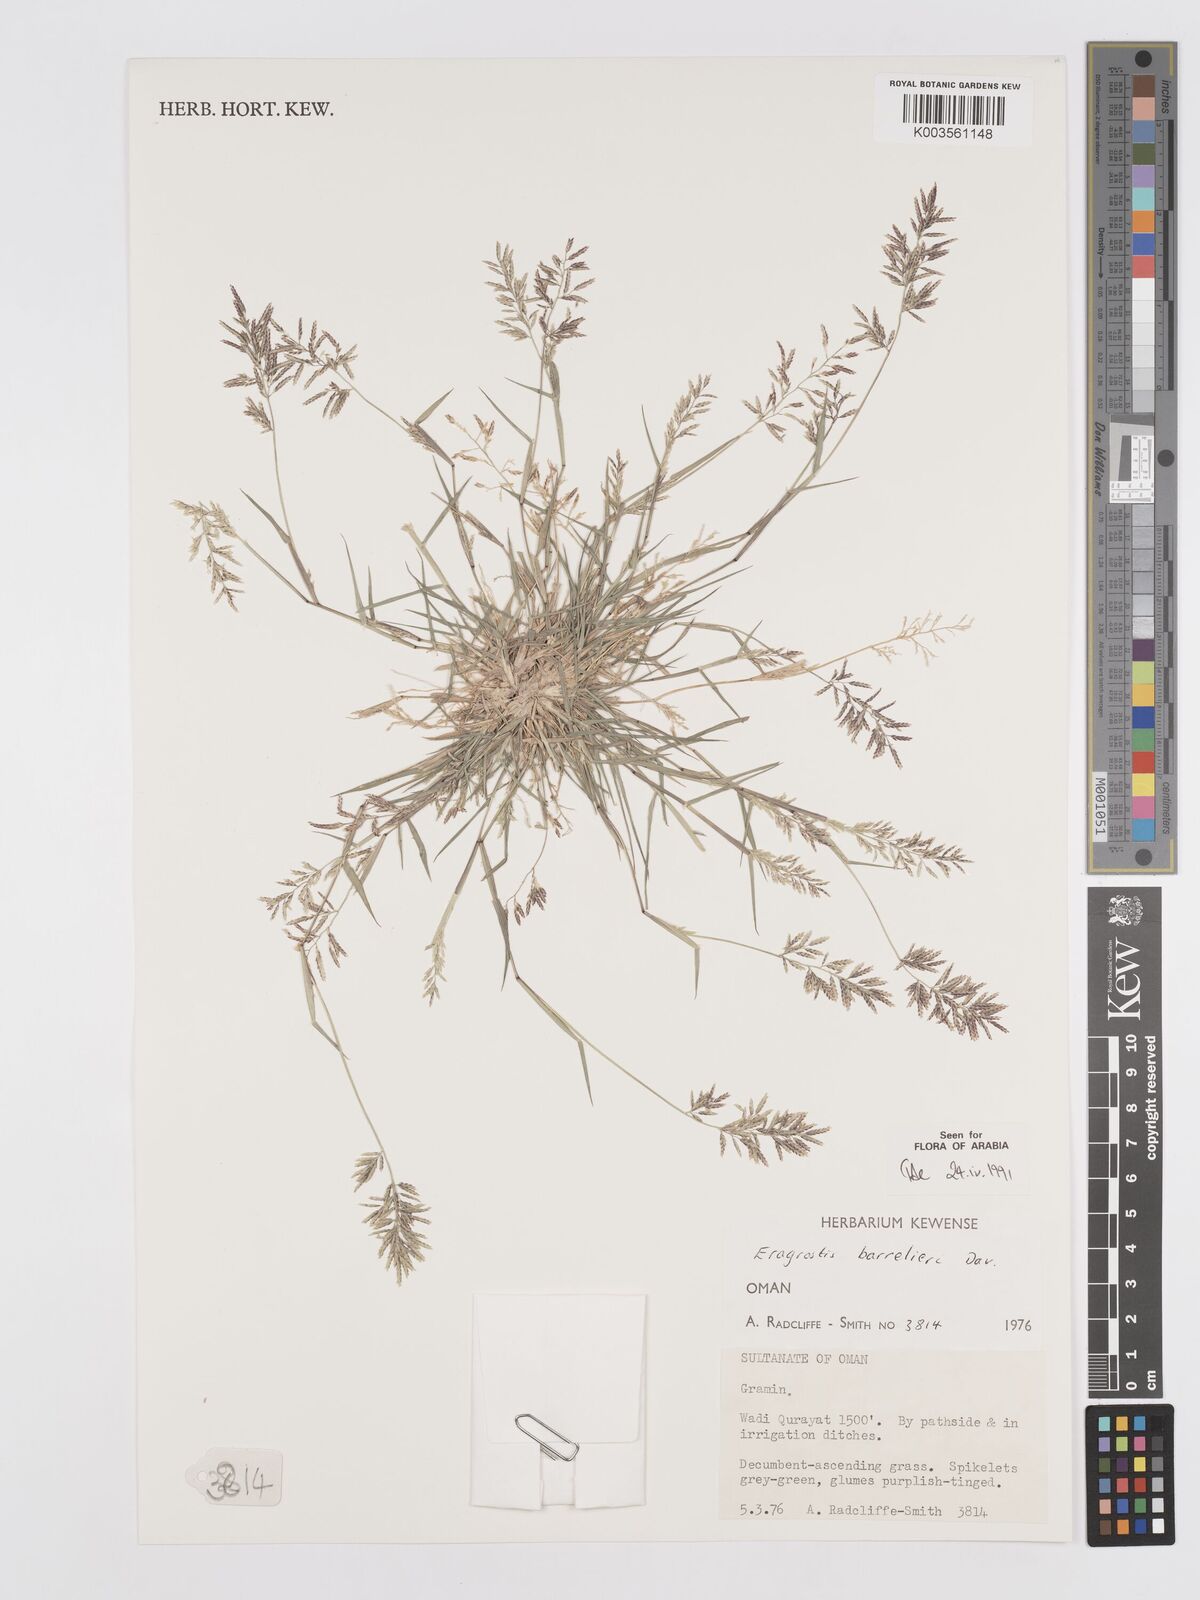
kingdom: Plantae
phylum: Tracheophyta
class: Liliopsida
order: Poales
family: Poaceae
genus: Eragrostis
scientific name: Eragrostis barrelieri
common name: Mediterranean lovegrass
